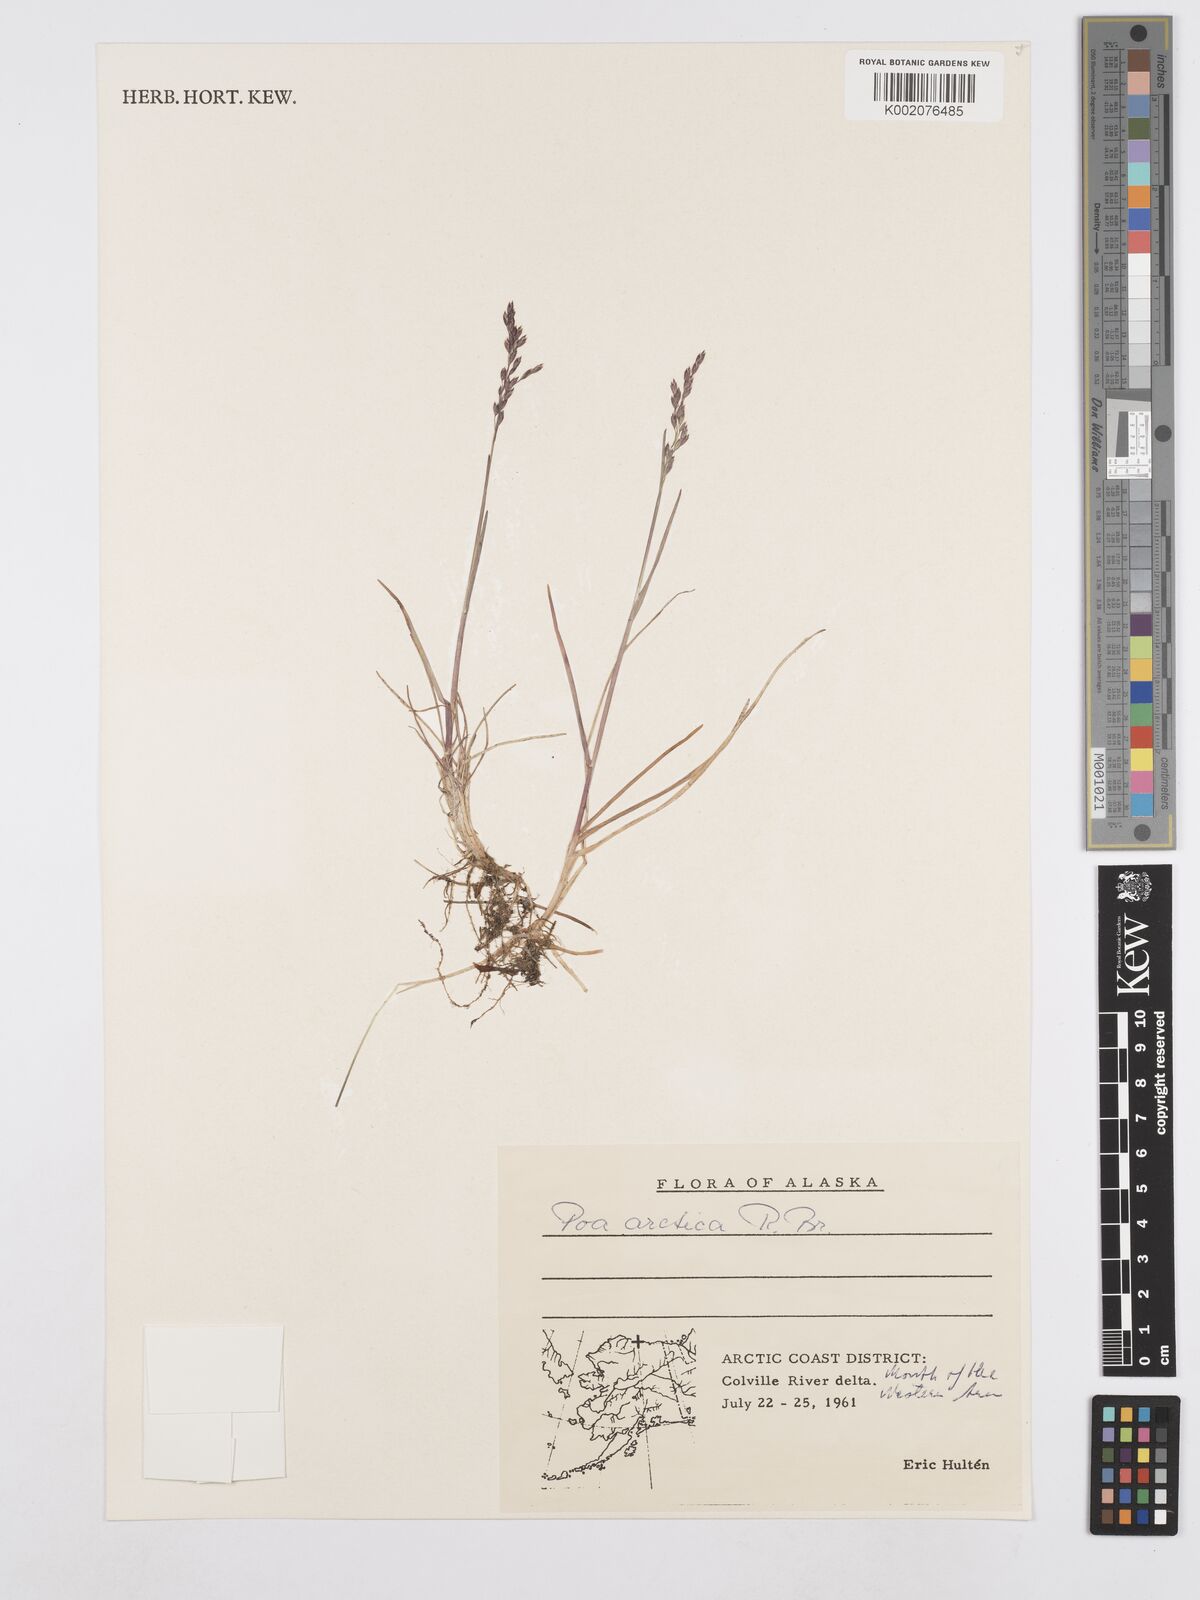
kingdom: Plantae
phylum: Tracheophyta
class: Liliopsida
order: Poales
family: Poaceae
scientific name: Poaceae
